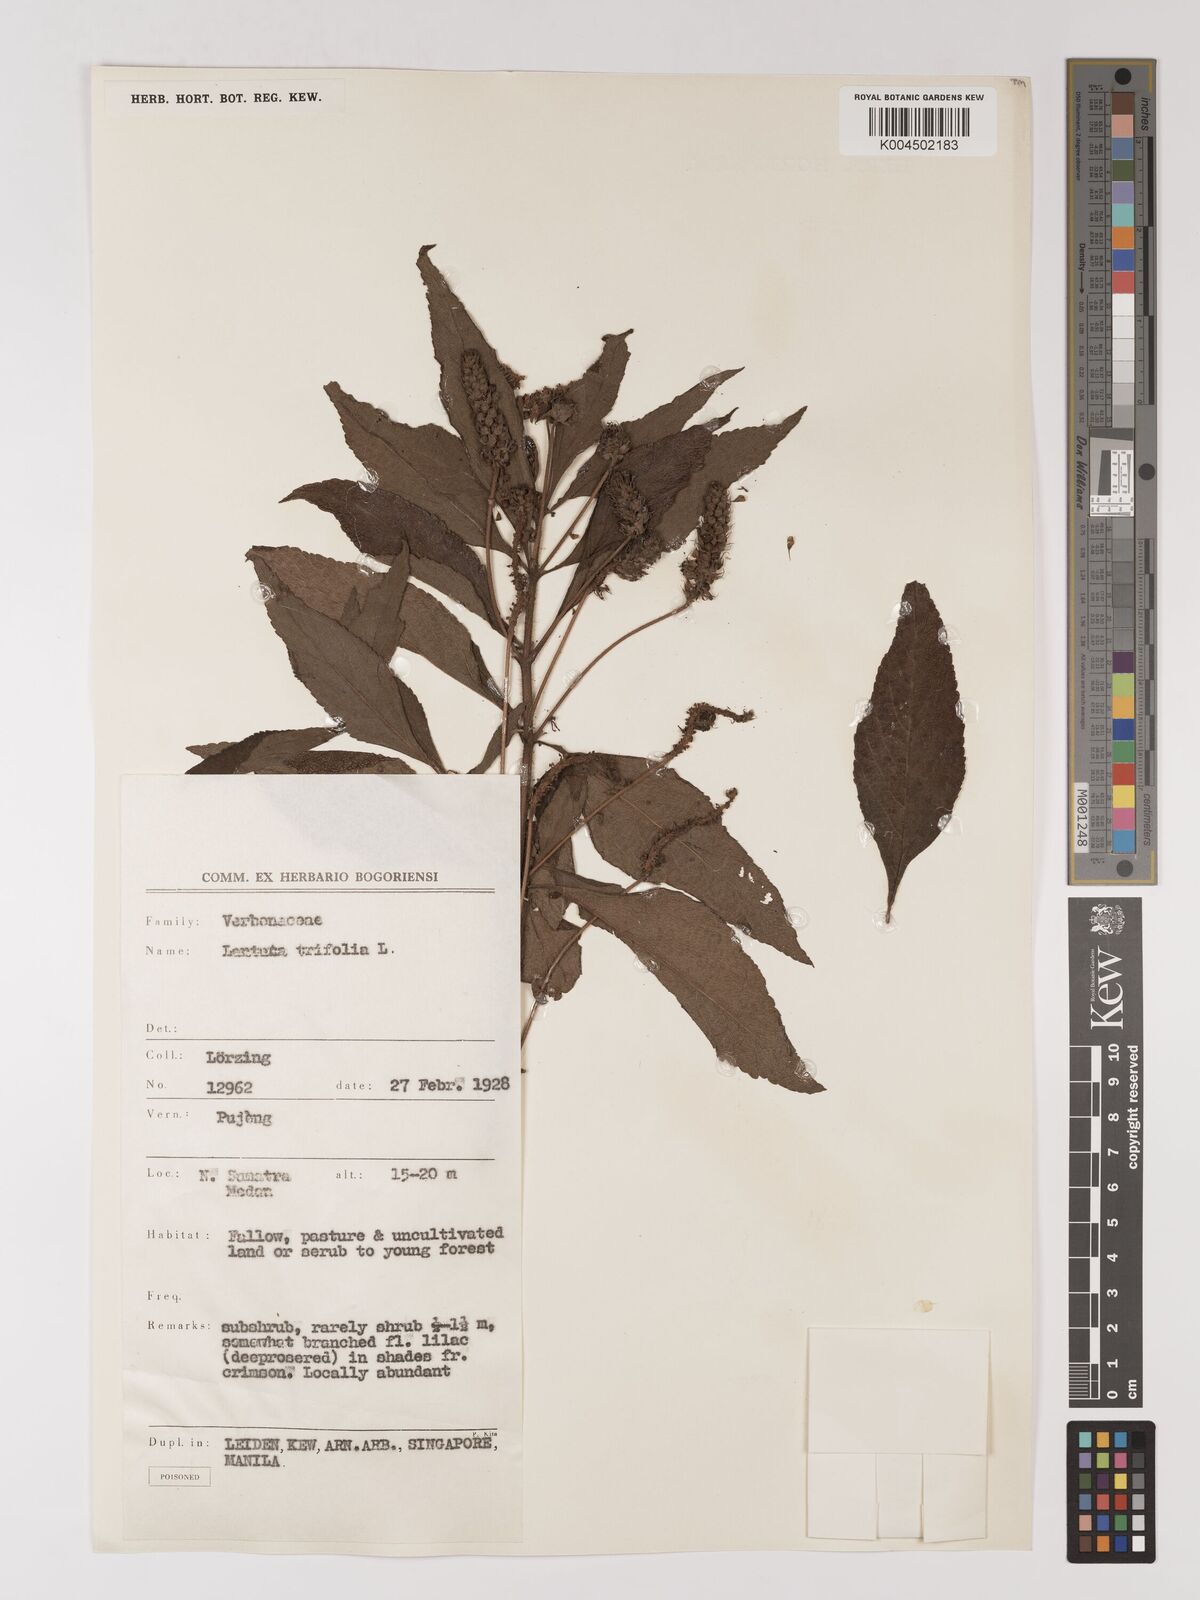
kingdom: Plantae
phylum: Tracheophyta
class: Magnoliopsida
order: Lamiales
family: Verbenaceae
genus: Lantana
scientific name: Lantana trifolia
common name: Sweet-sage
